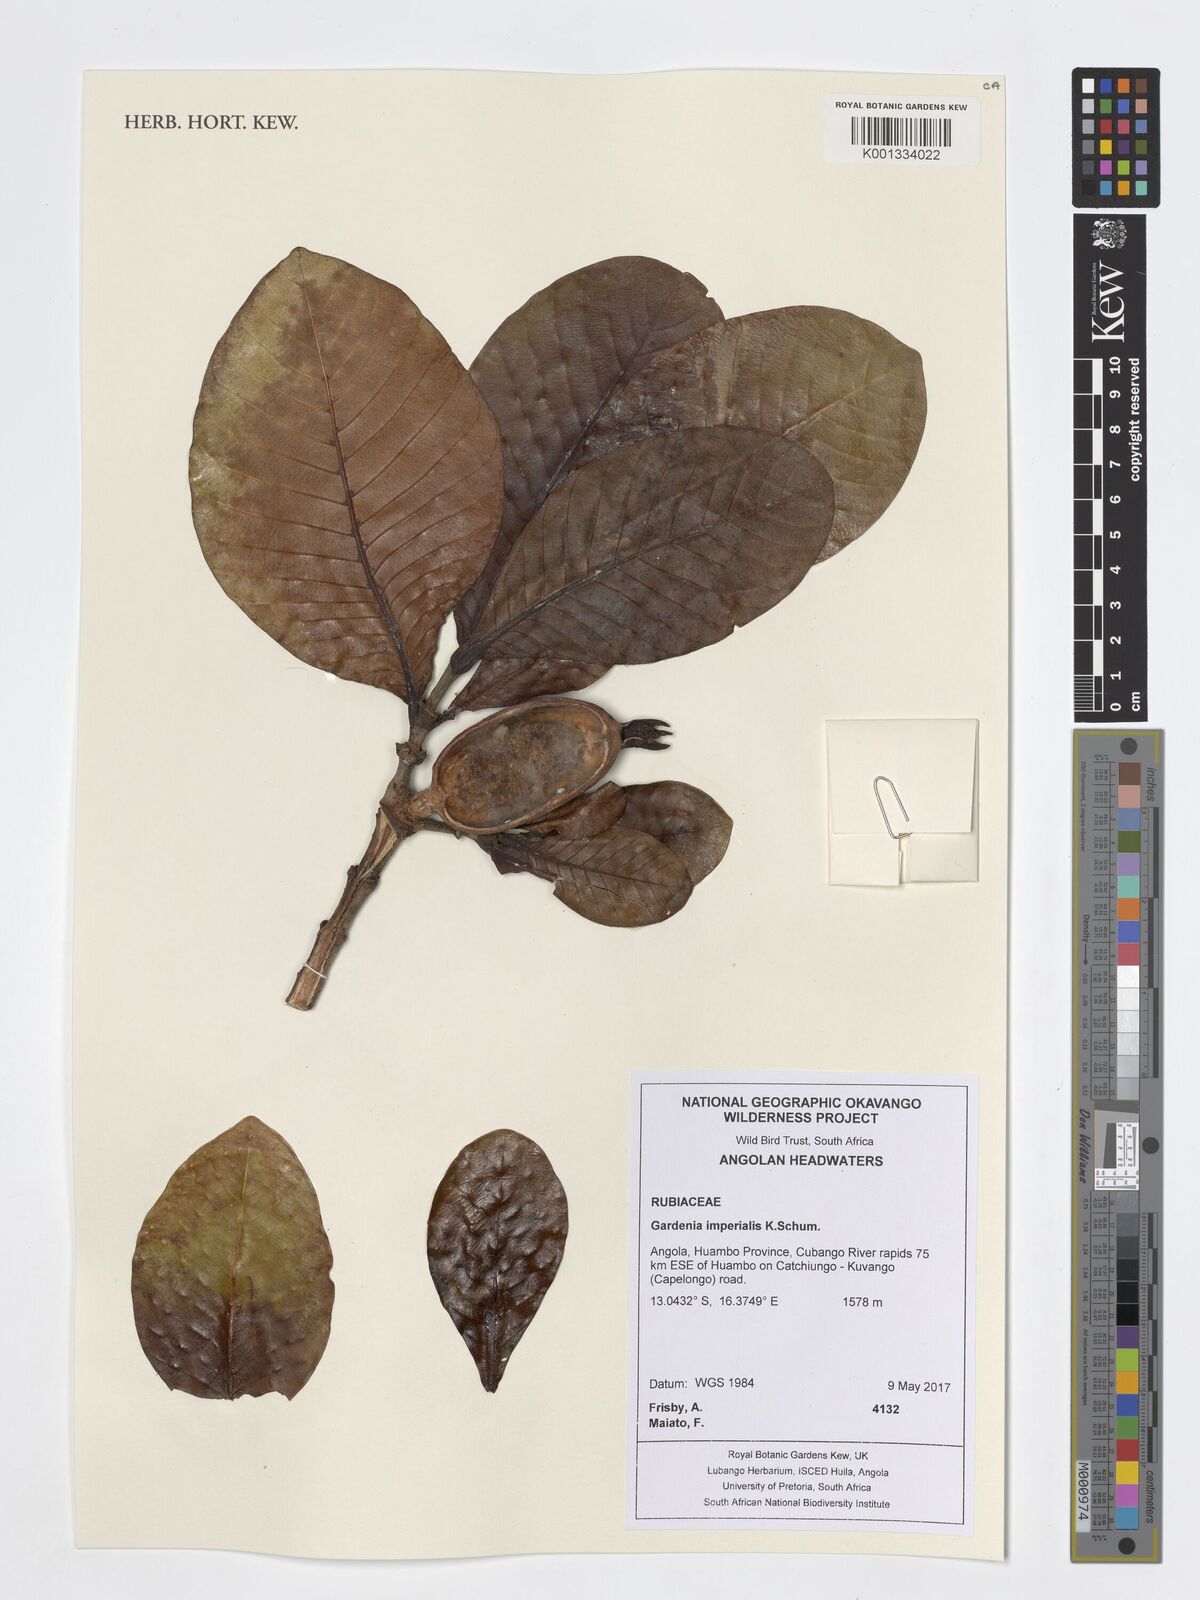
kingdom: Plantae
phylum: Tracheophyta
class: Magnoliopsida
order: Gentianales
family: Rubiaceae
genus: Gardenia
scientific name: Gardenia imperialis
